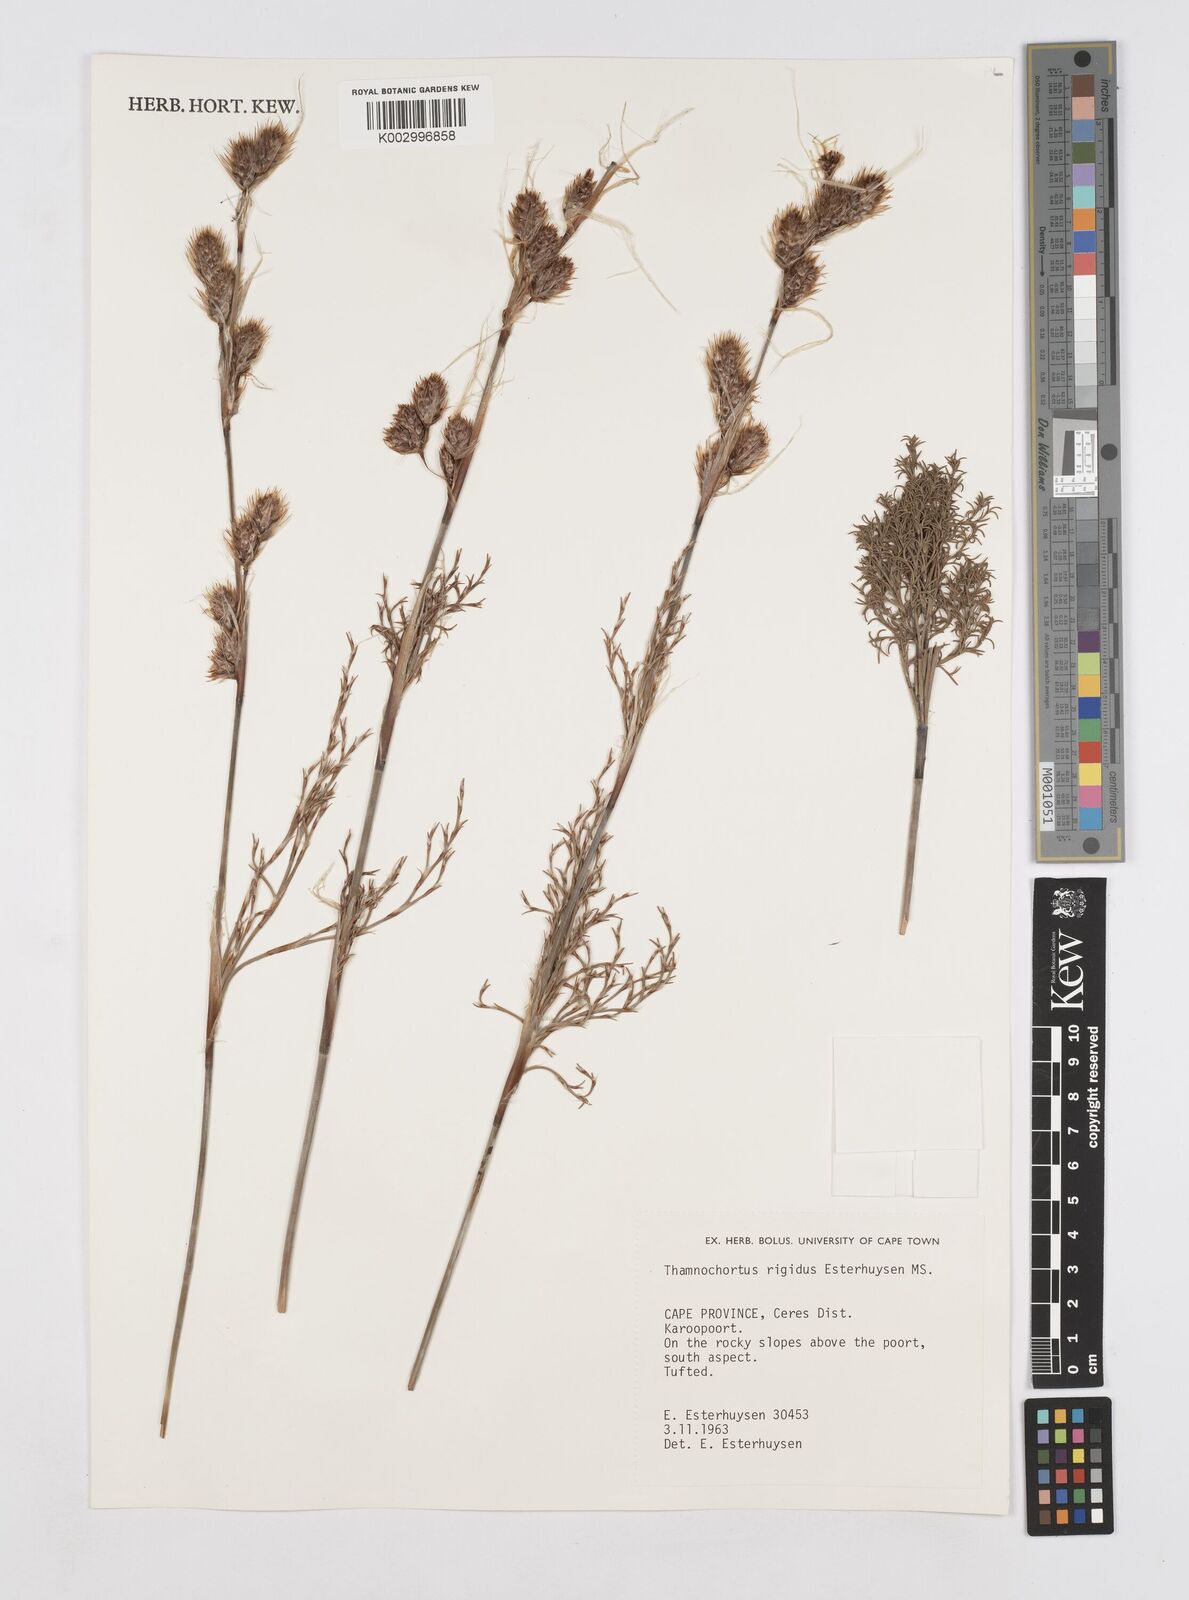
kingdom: Plantae
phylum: Tracheophyta
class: Liliopsida
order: Poales
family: Restionaceae
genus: Thamnochortus
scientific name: Thamnochortus arenarius
